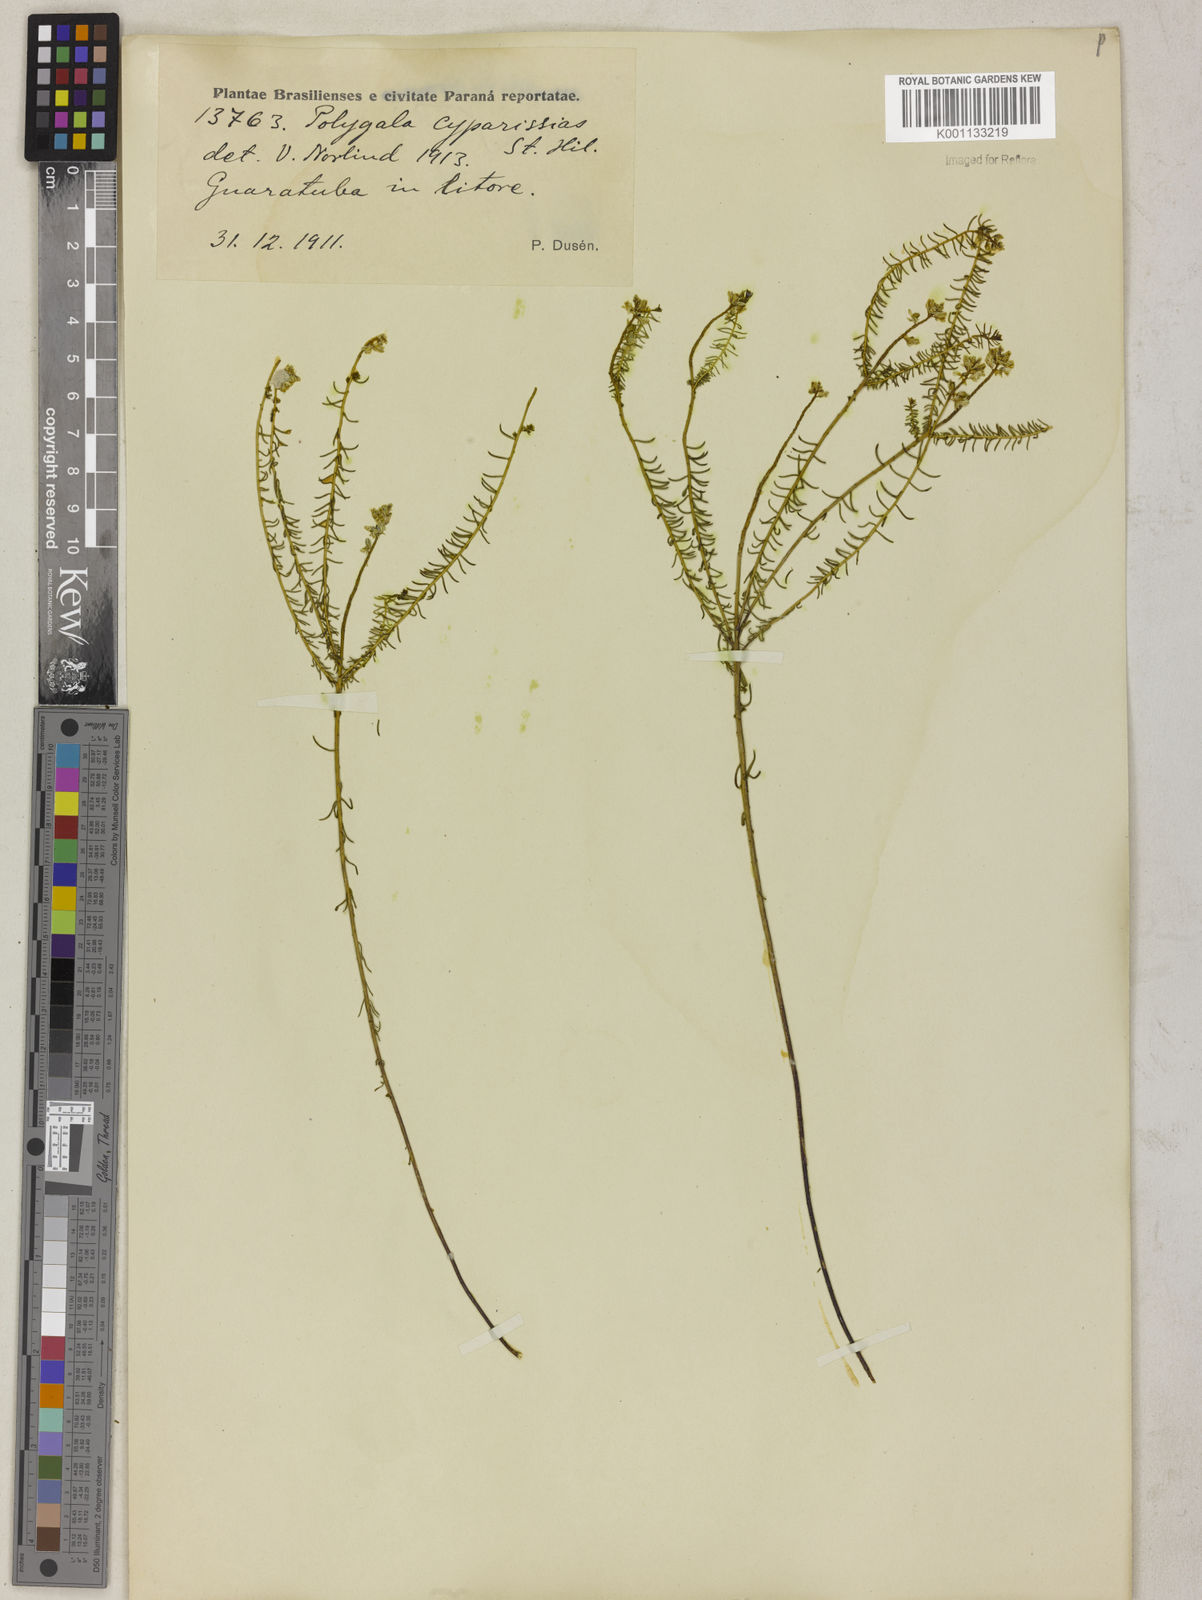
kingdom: Plantae
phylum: Tracheophyta
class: Magnoliopsida
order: Fabales
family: Polygalaceae
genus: Polygala
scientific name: Polygala cyparissias
